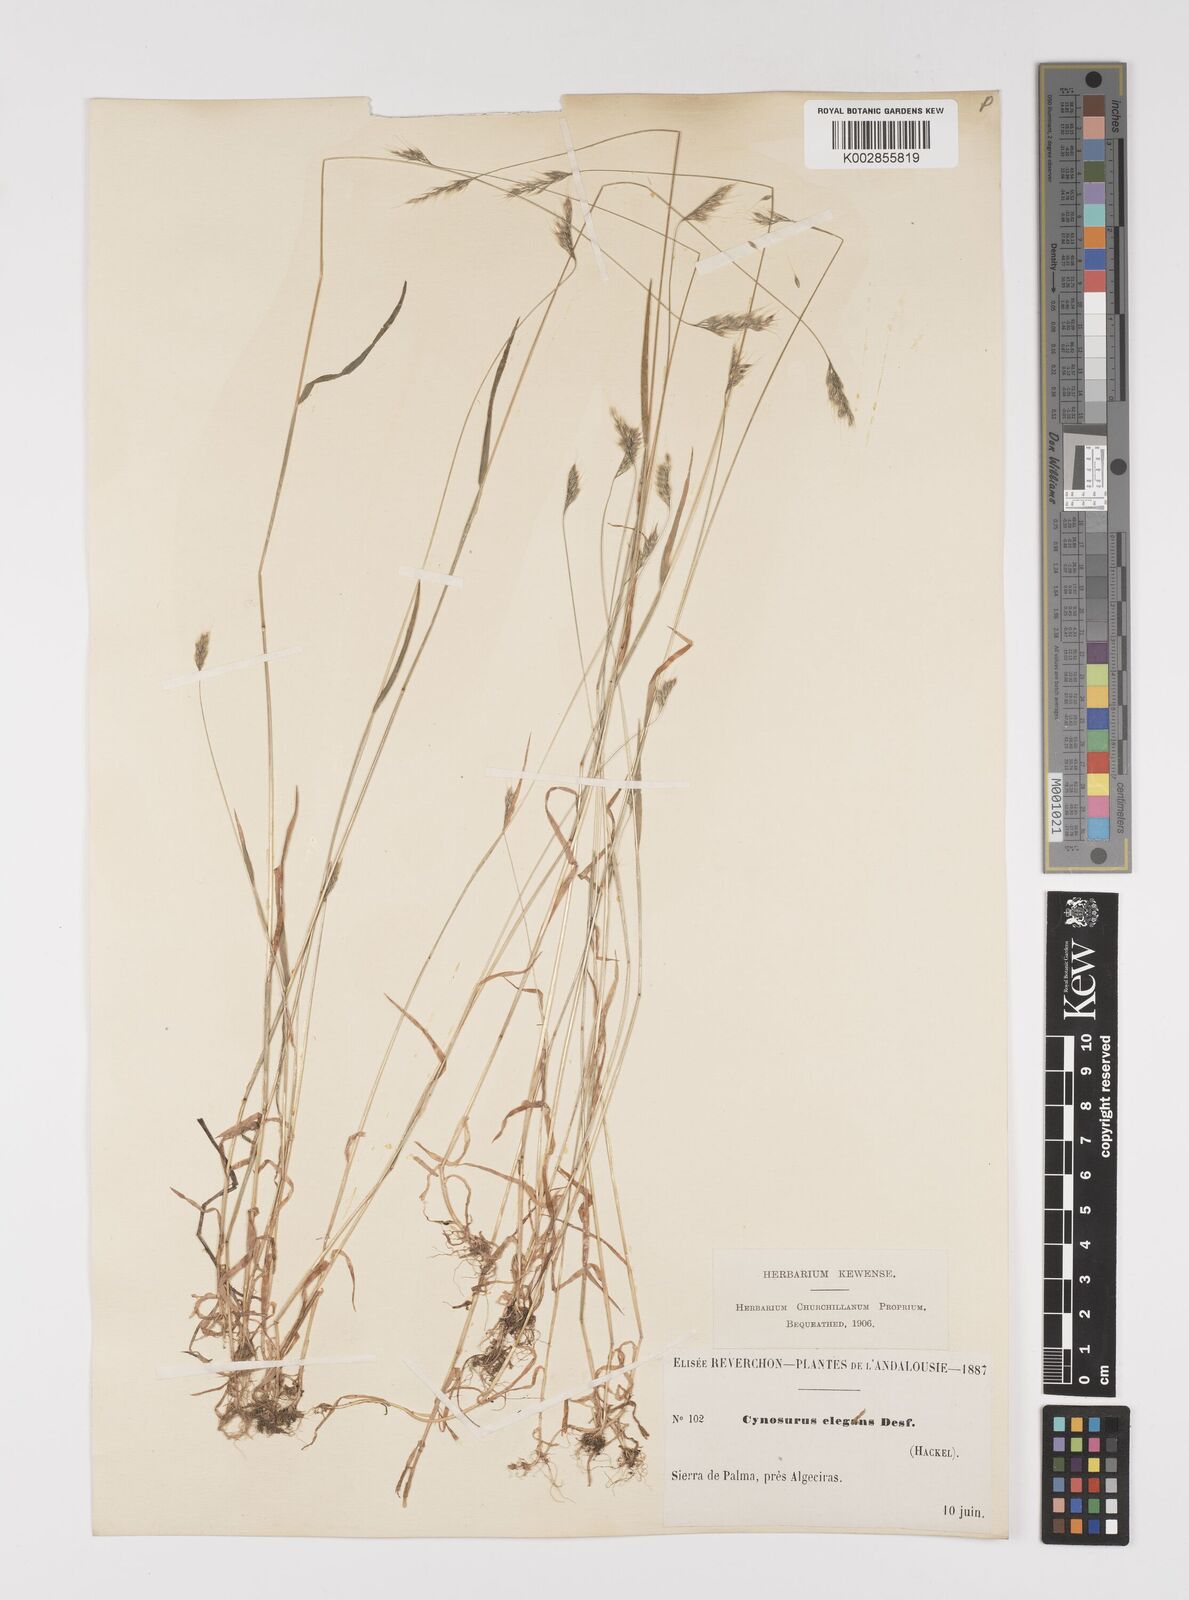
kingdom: Plantae
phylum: Tracheophyta
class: Liliopsida
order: Poales
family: Poaceae
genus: Cynosurus
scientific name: Cynosurus elegans
